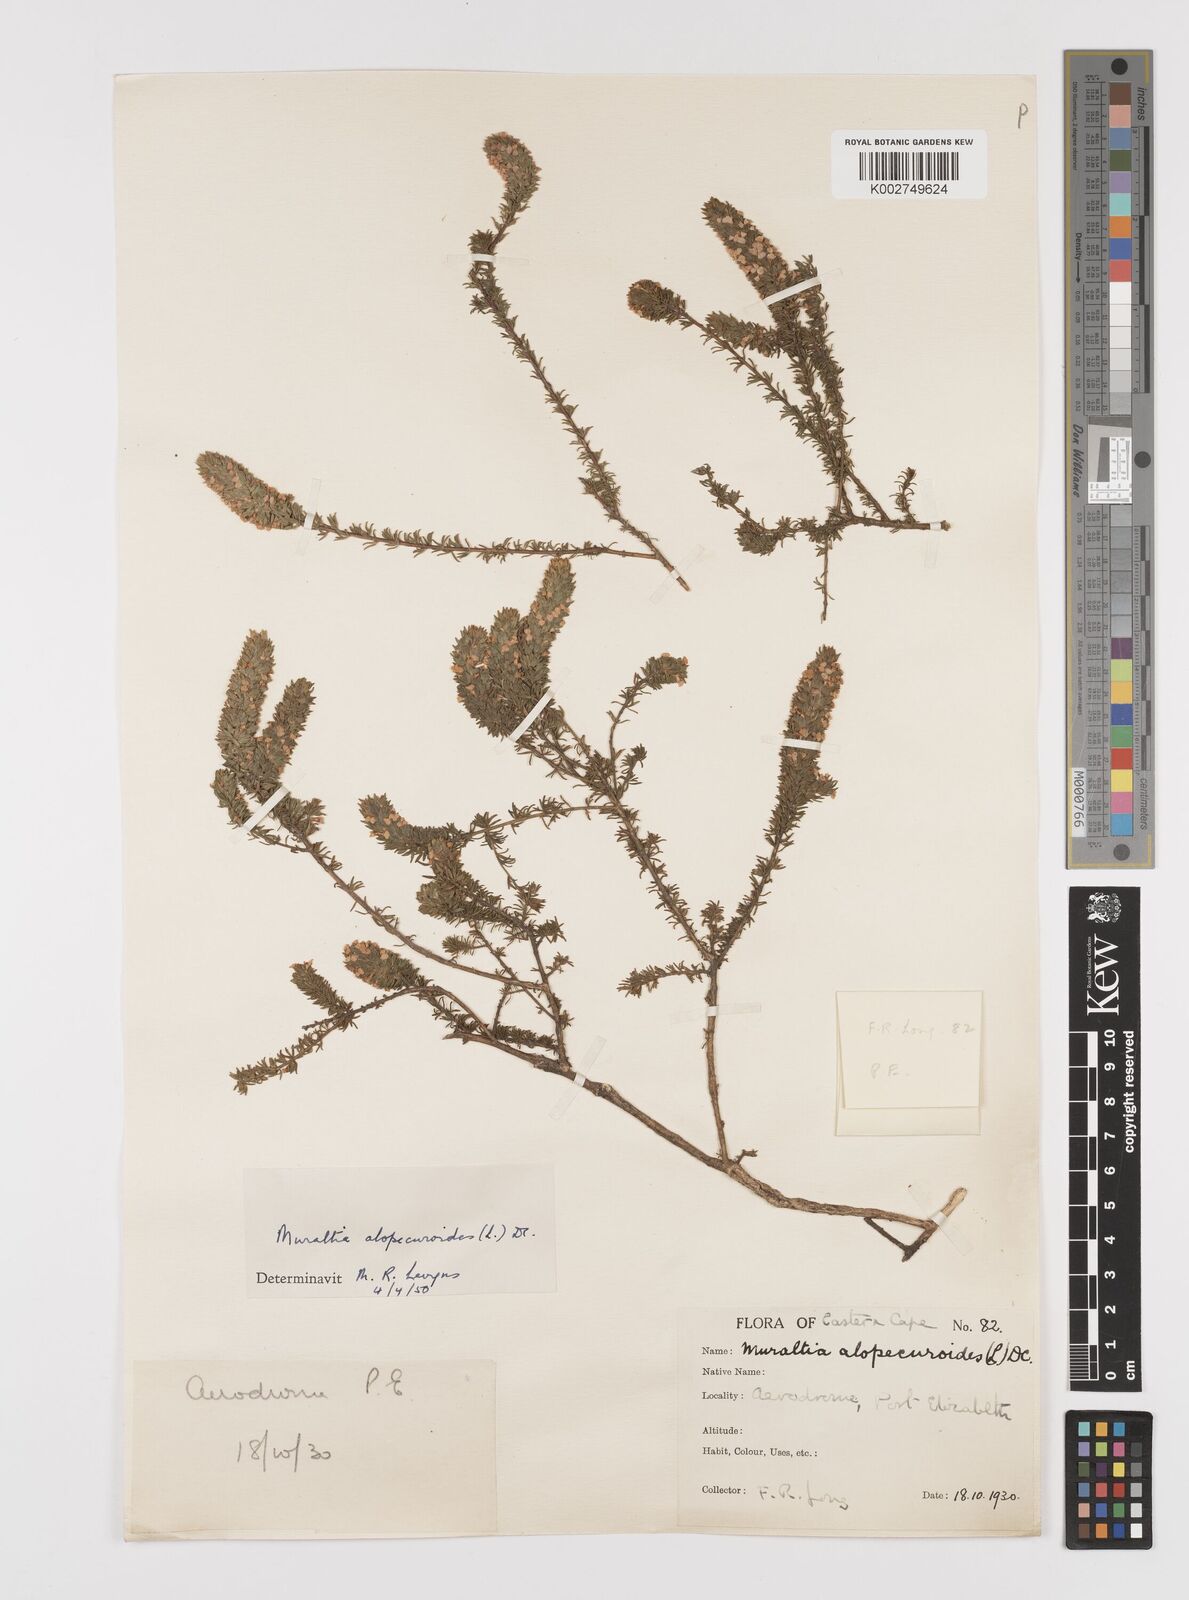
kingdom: Plantae
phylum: Tracheophyta
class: Magnoliopsida
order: Fabales
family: Polygalaceae
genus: Muraltia
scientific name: Muraltia alopecuroides
